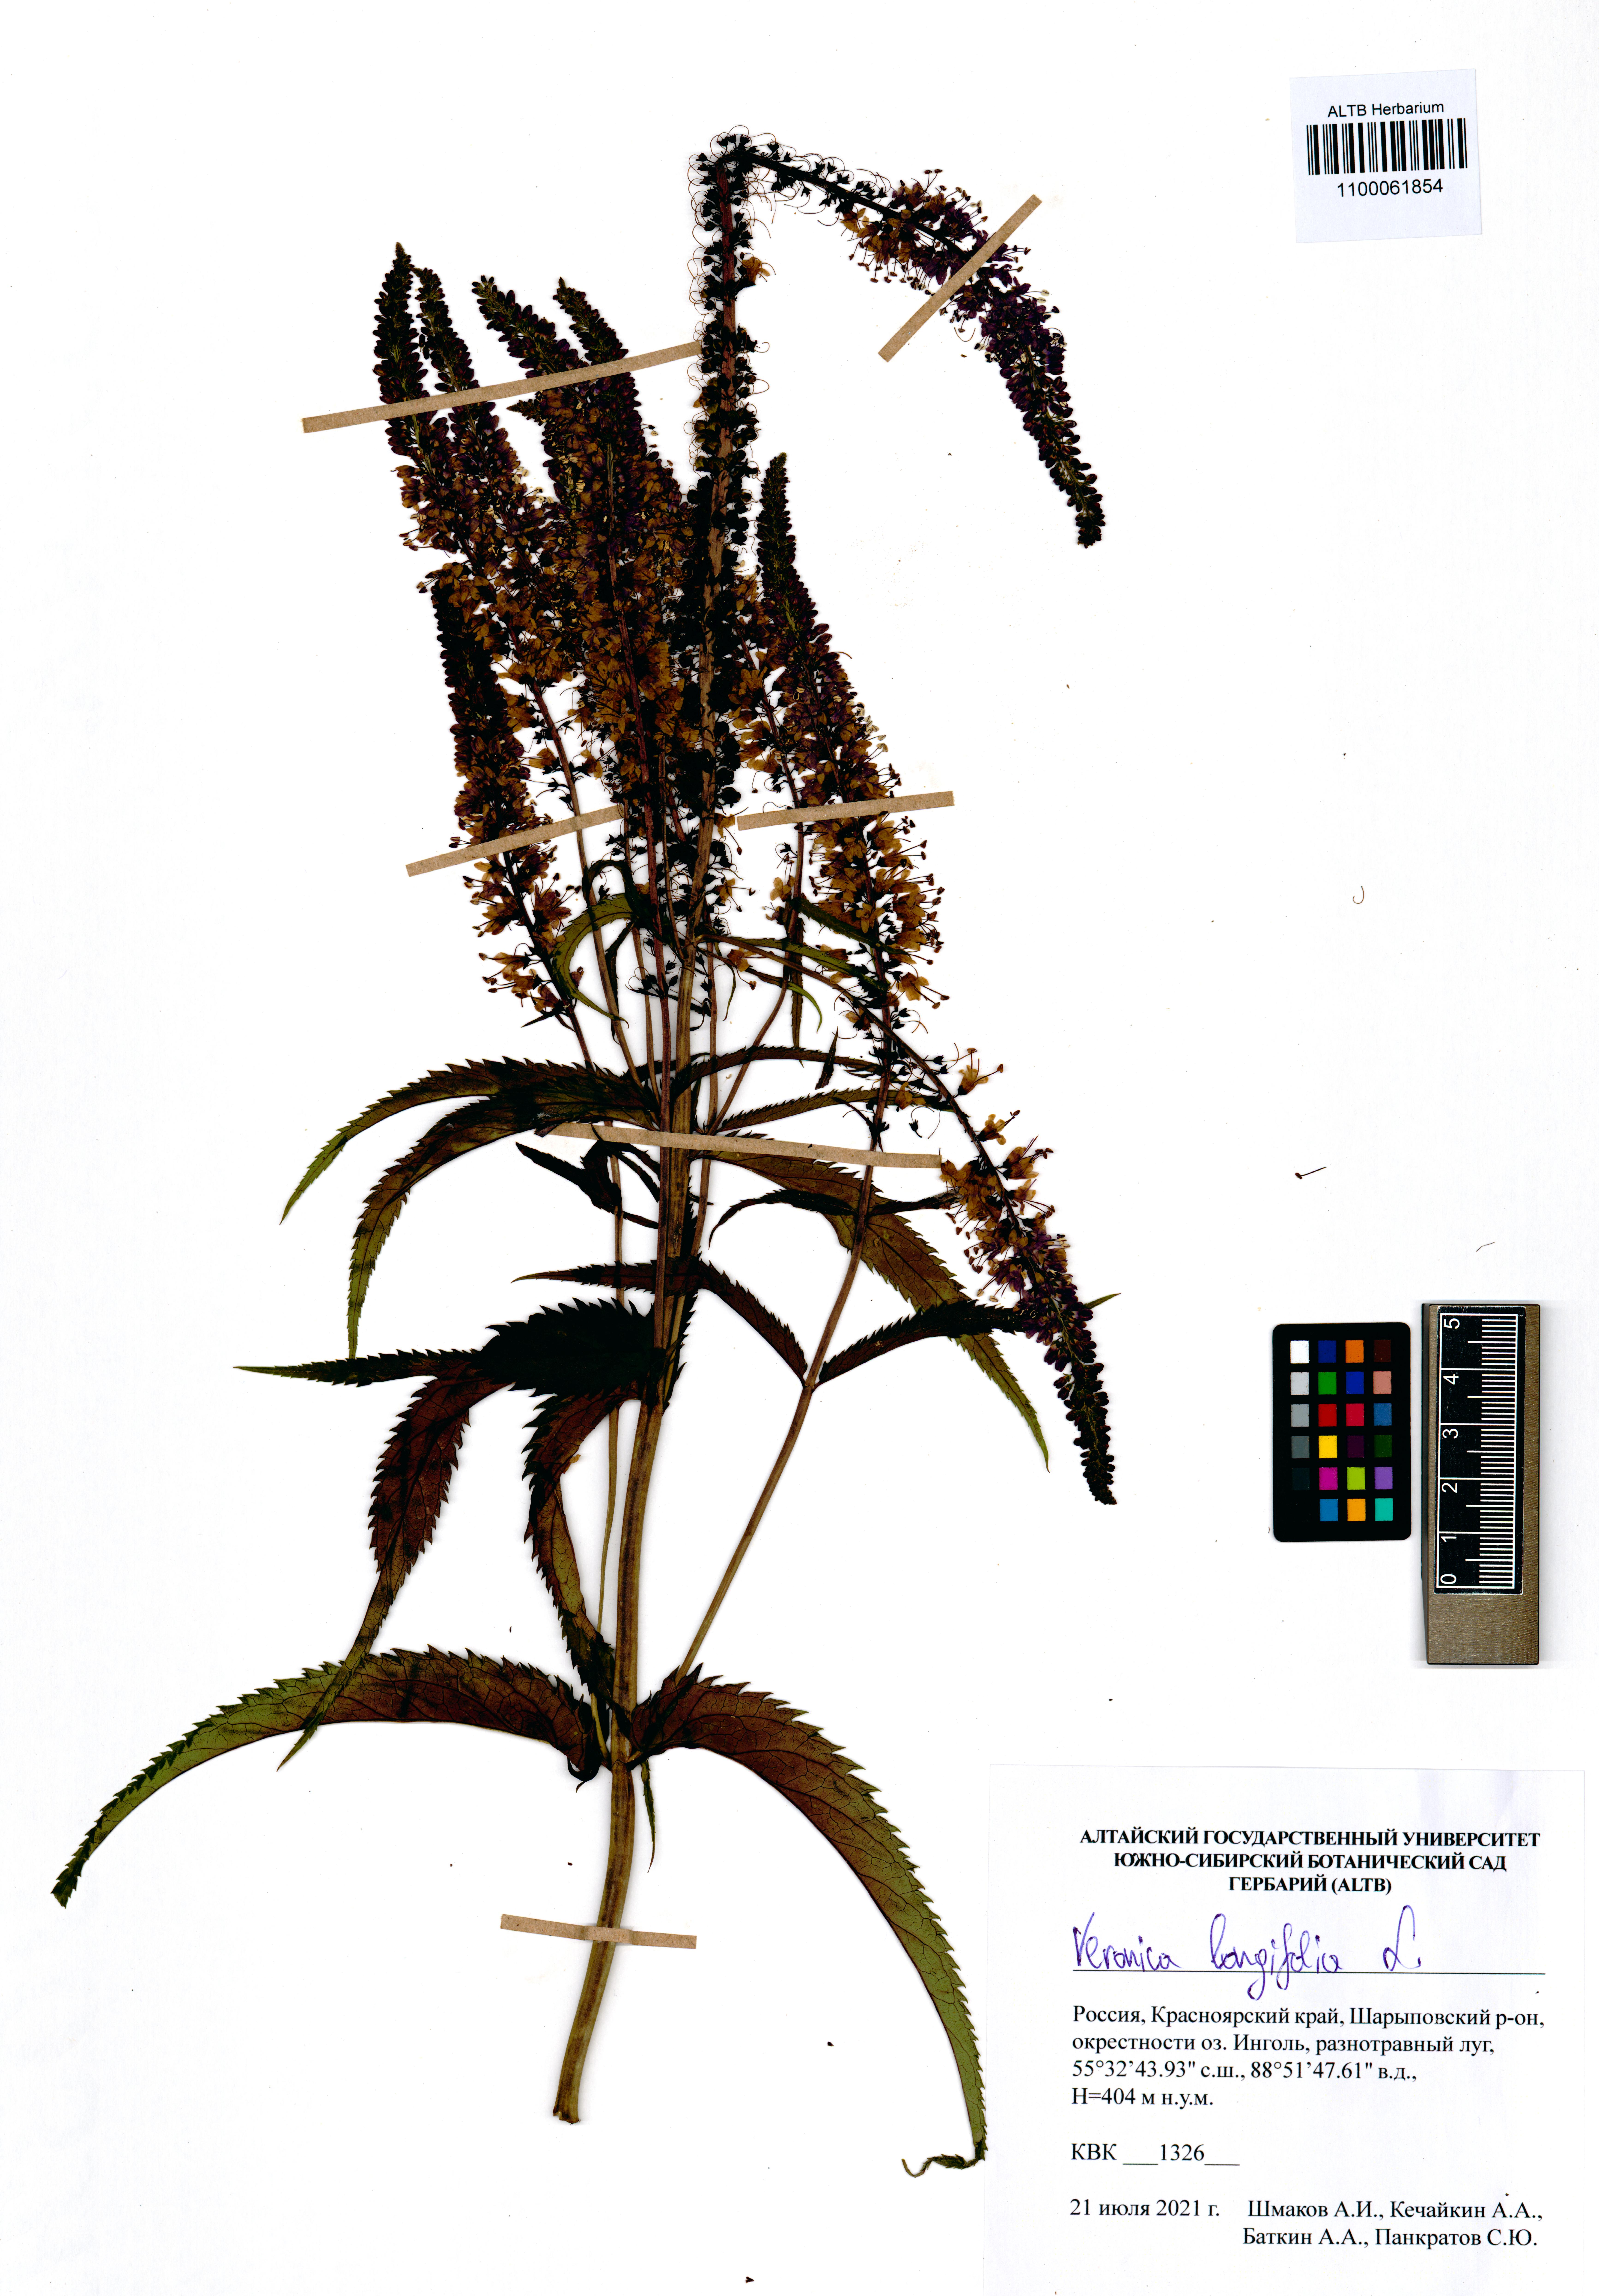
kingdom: Plantae
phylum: Tracheophyta
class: Magnoliopsida
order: Lamiales
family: Plantaginaceae
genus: Veronica
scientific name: Veronica longifolia
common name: Garden speedwell
